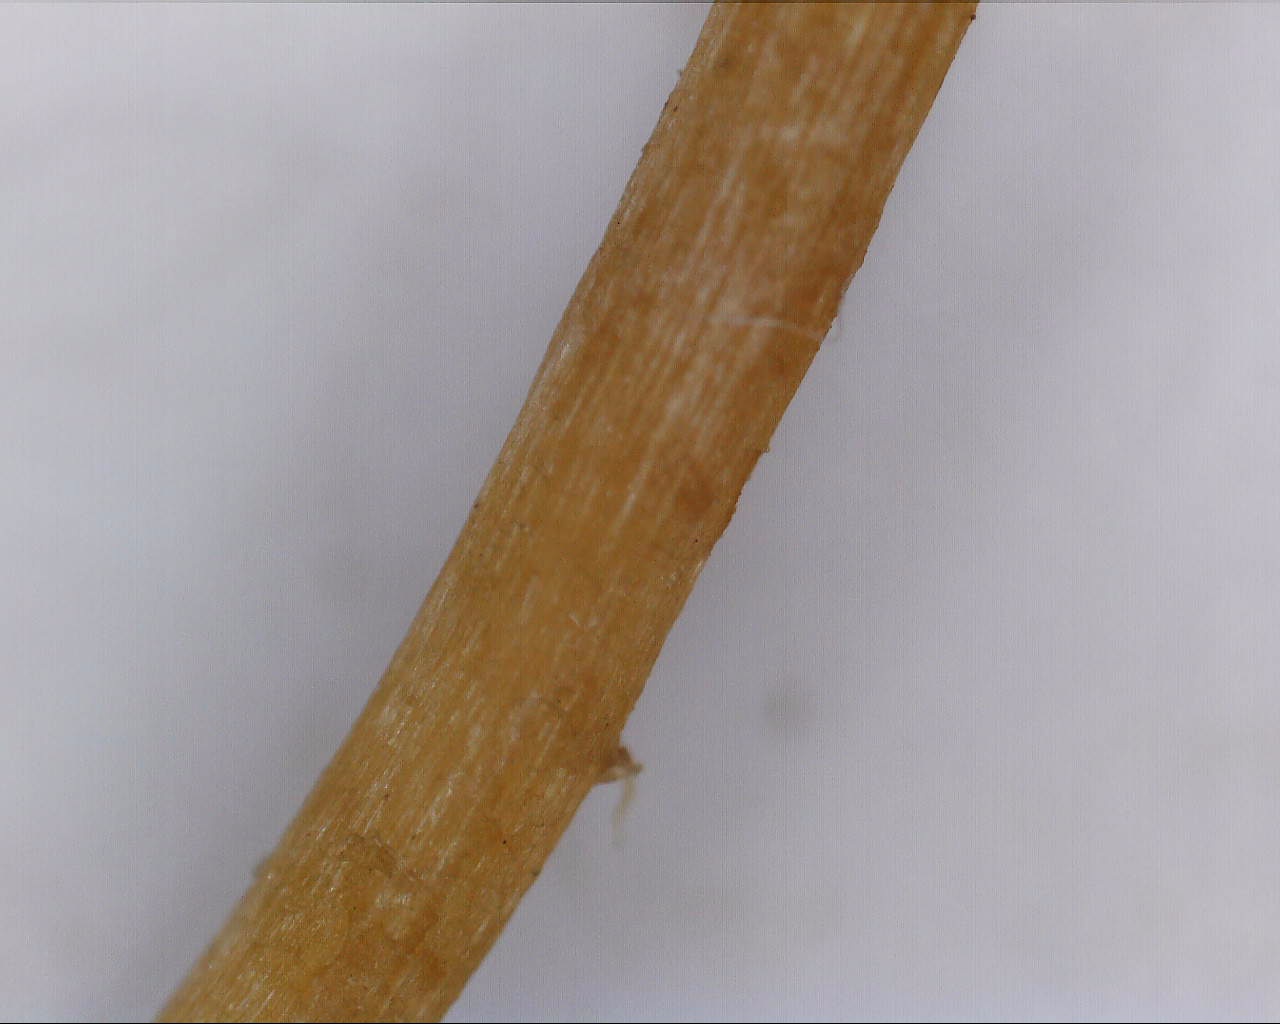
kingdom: Fungi
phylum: Basidiomycota
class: Agaricomycetes
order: Agaricales
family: Hymenogastraceae
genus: Galerina
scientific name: Galerina
